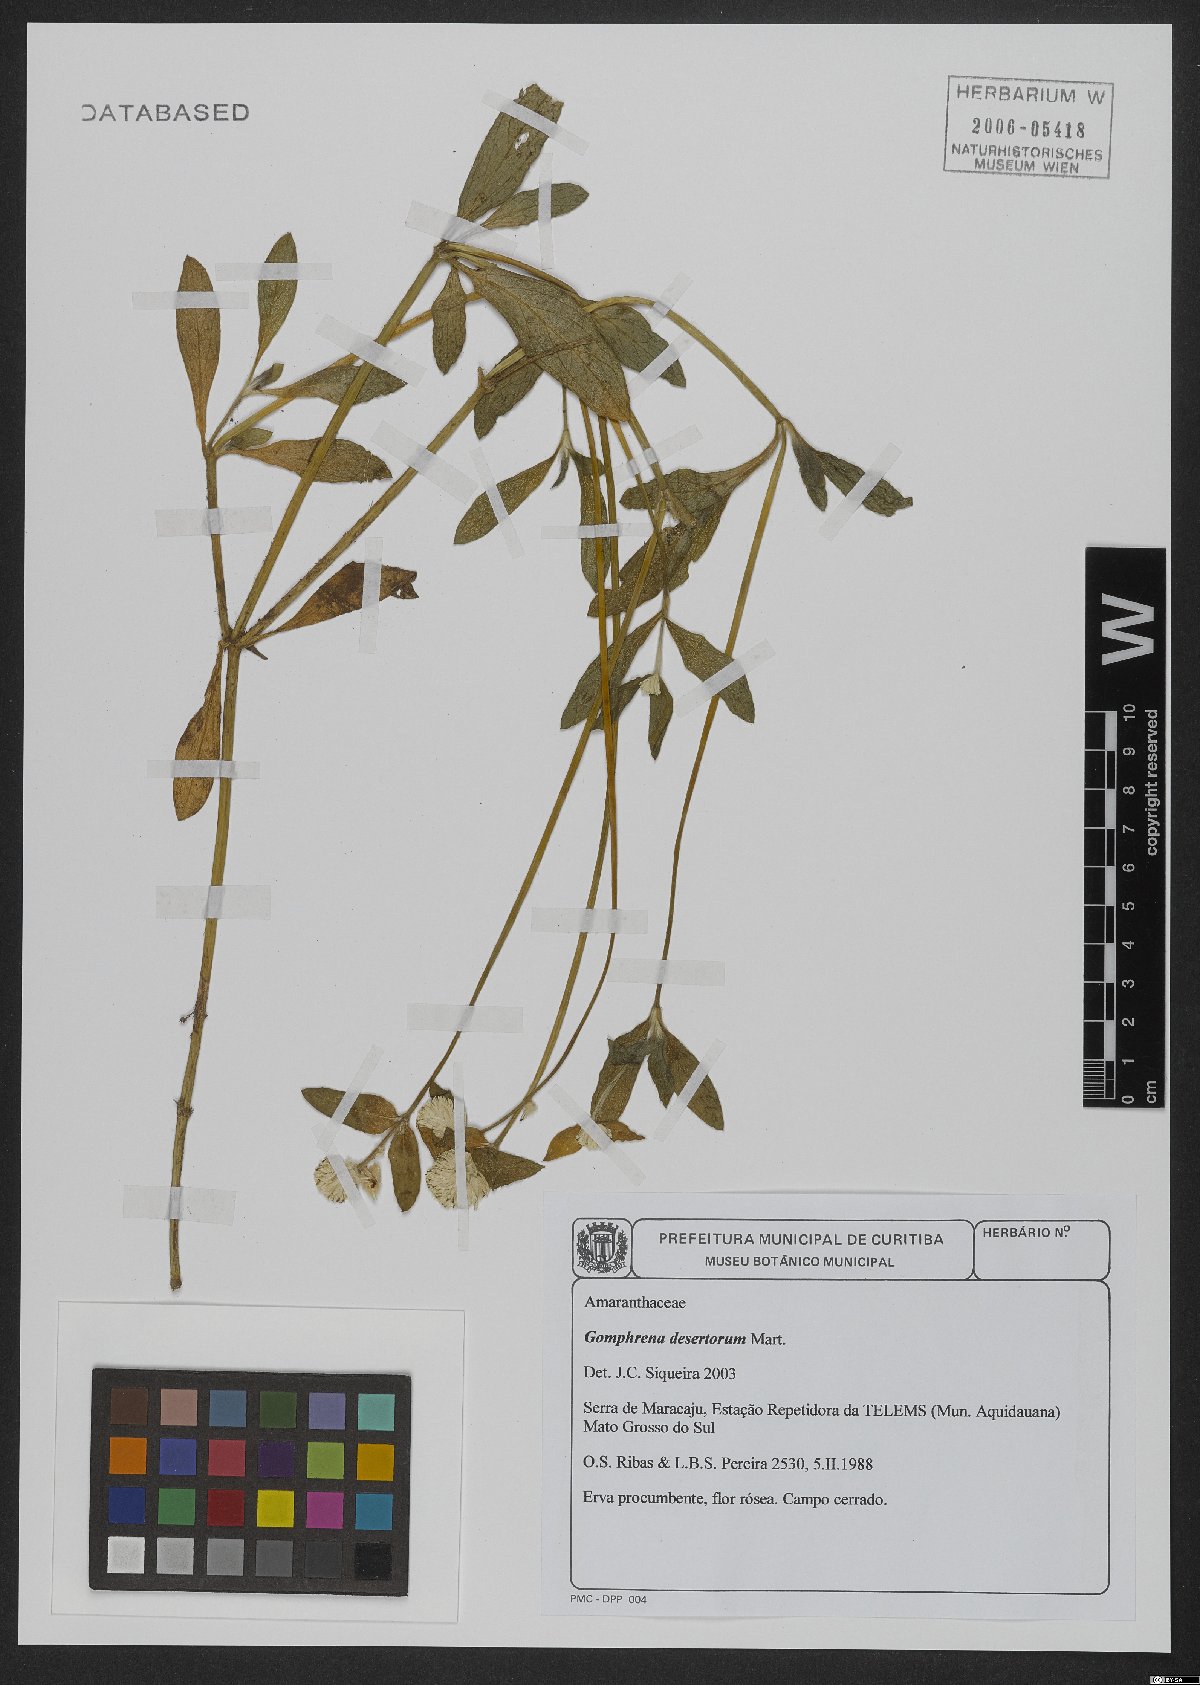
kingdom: Plantae
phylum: Tracheophyta
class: Magnoliopsida
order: Caryophyllales
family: Amaranthaceae
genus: Gomphrena
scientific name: Gomphrena desertorum
